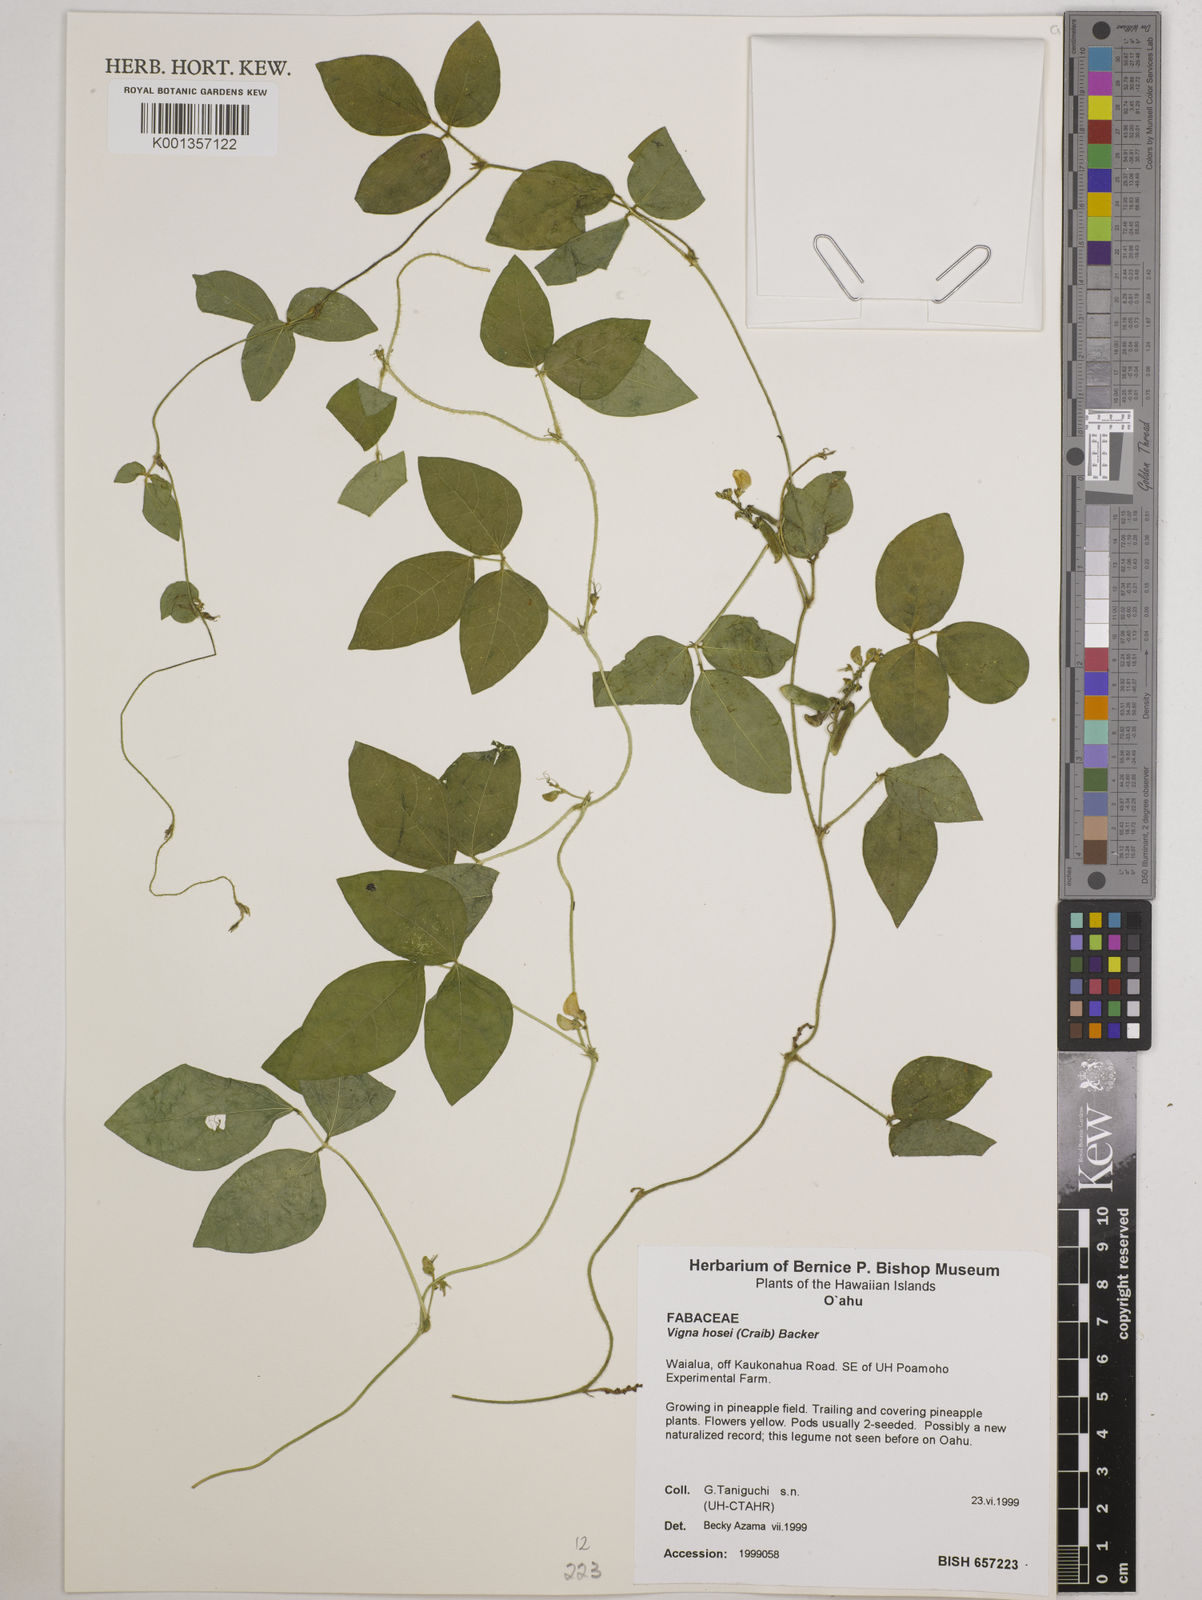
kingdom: Plantae
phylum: Tracheophyta
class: Magnoliopsida
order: Fabales
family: Fabaceae
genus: Vigna
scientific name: Vigna hosei
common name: Sarawak-bean
